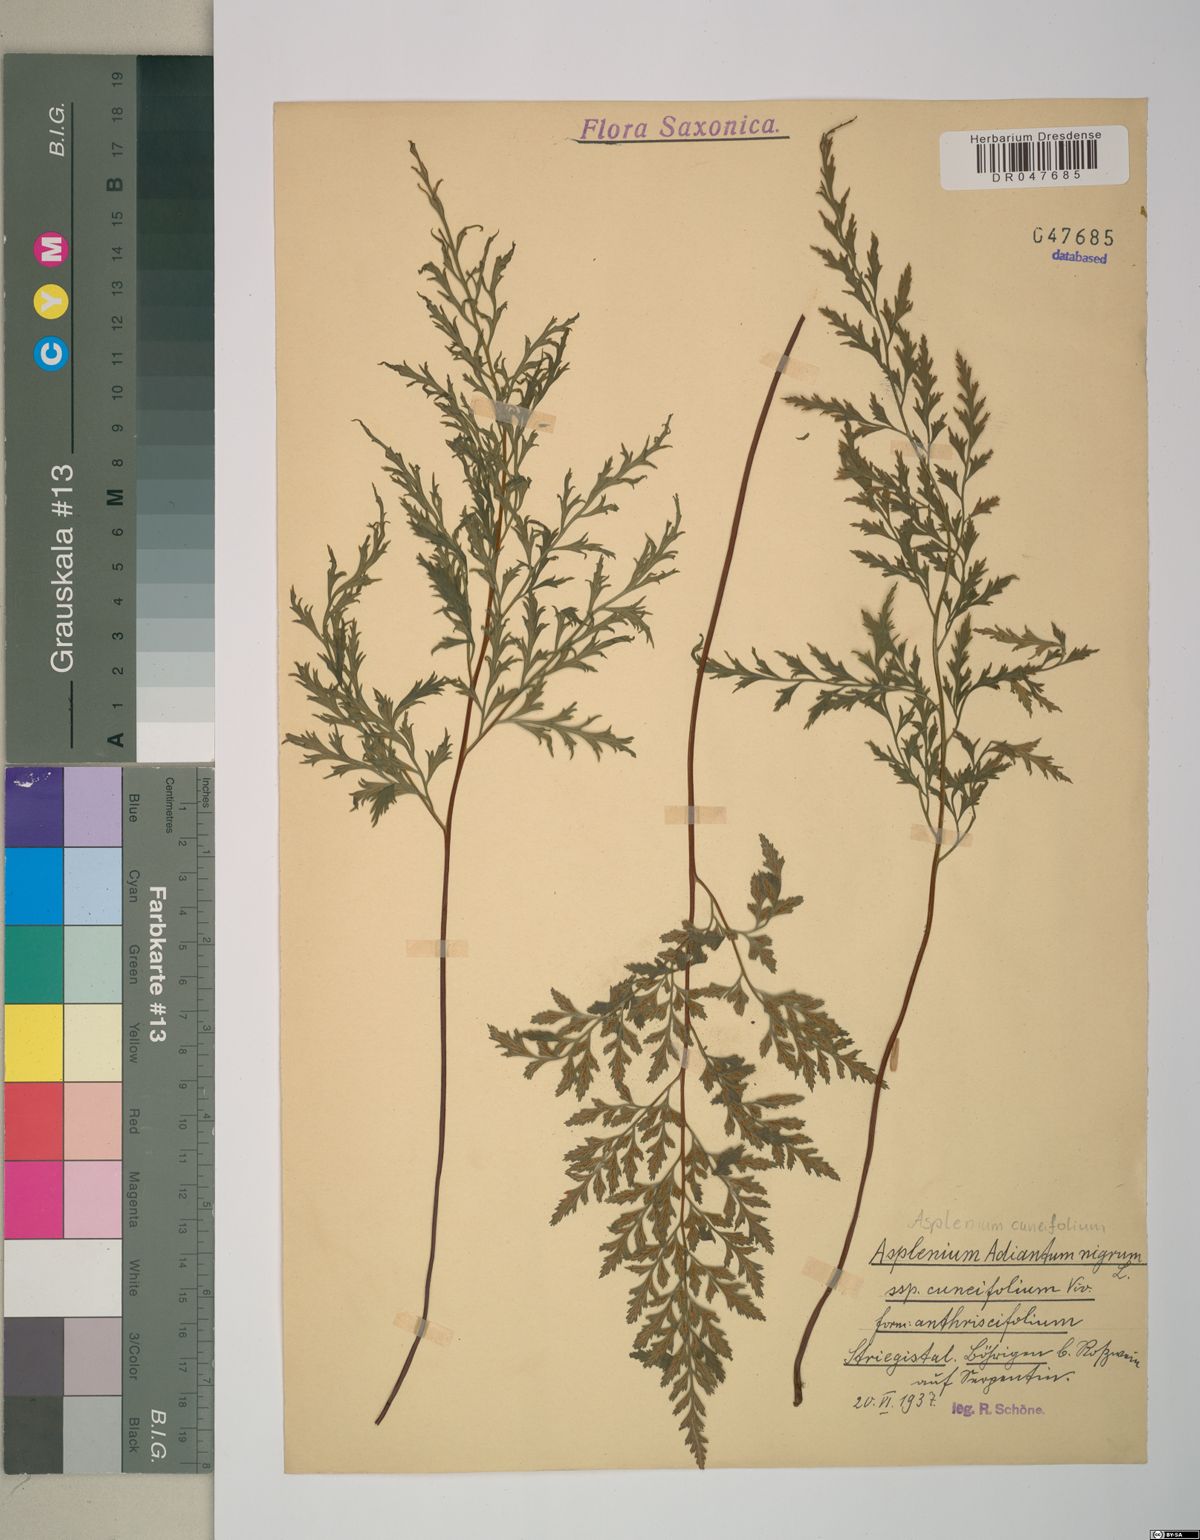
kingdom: Plantae
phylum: Tracheophyta
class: Polypodiopsida
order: Polypodiales
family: Aspleniaceae
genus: Asplenium
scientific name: Asplenium cuneifolium
